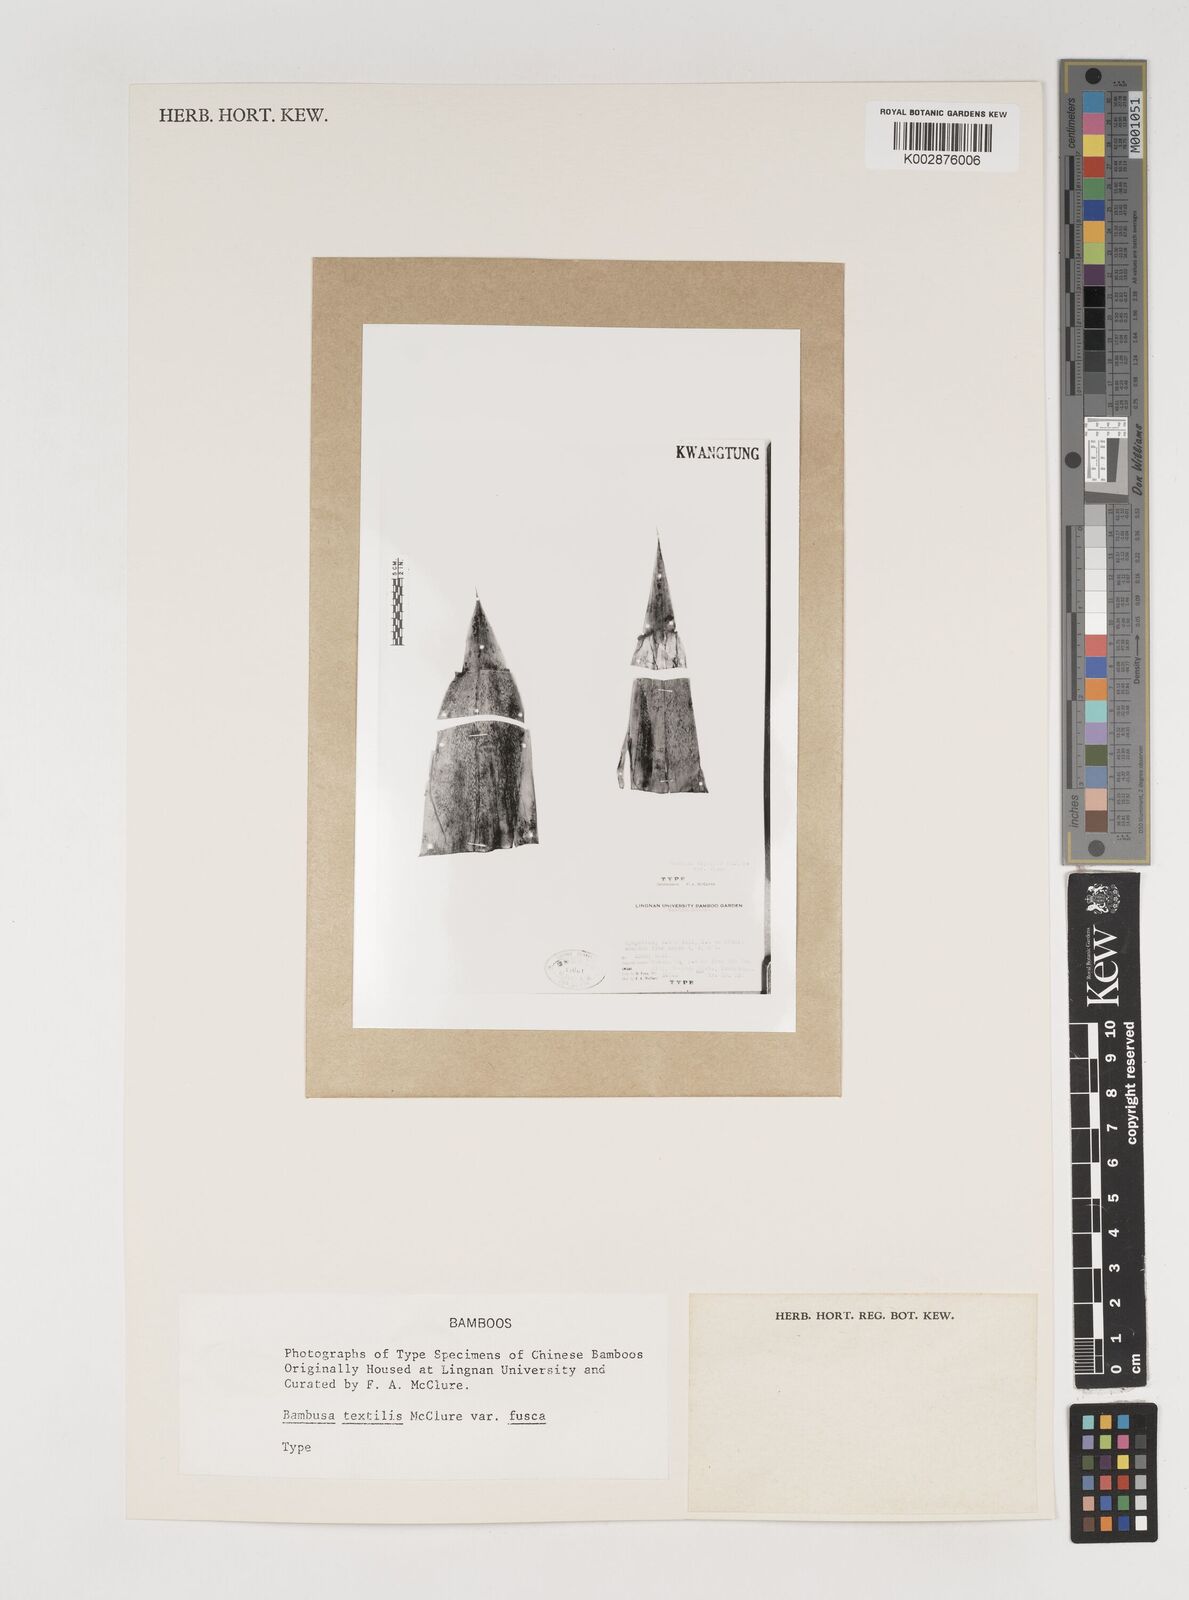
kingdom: Plantae
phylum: Tracheophyta
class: Liliopsida
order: Poales
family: Poaceae
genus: Bambusa
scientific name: Bambusa albolineata
